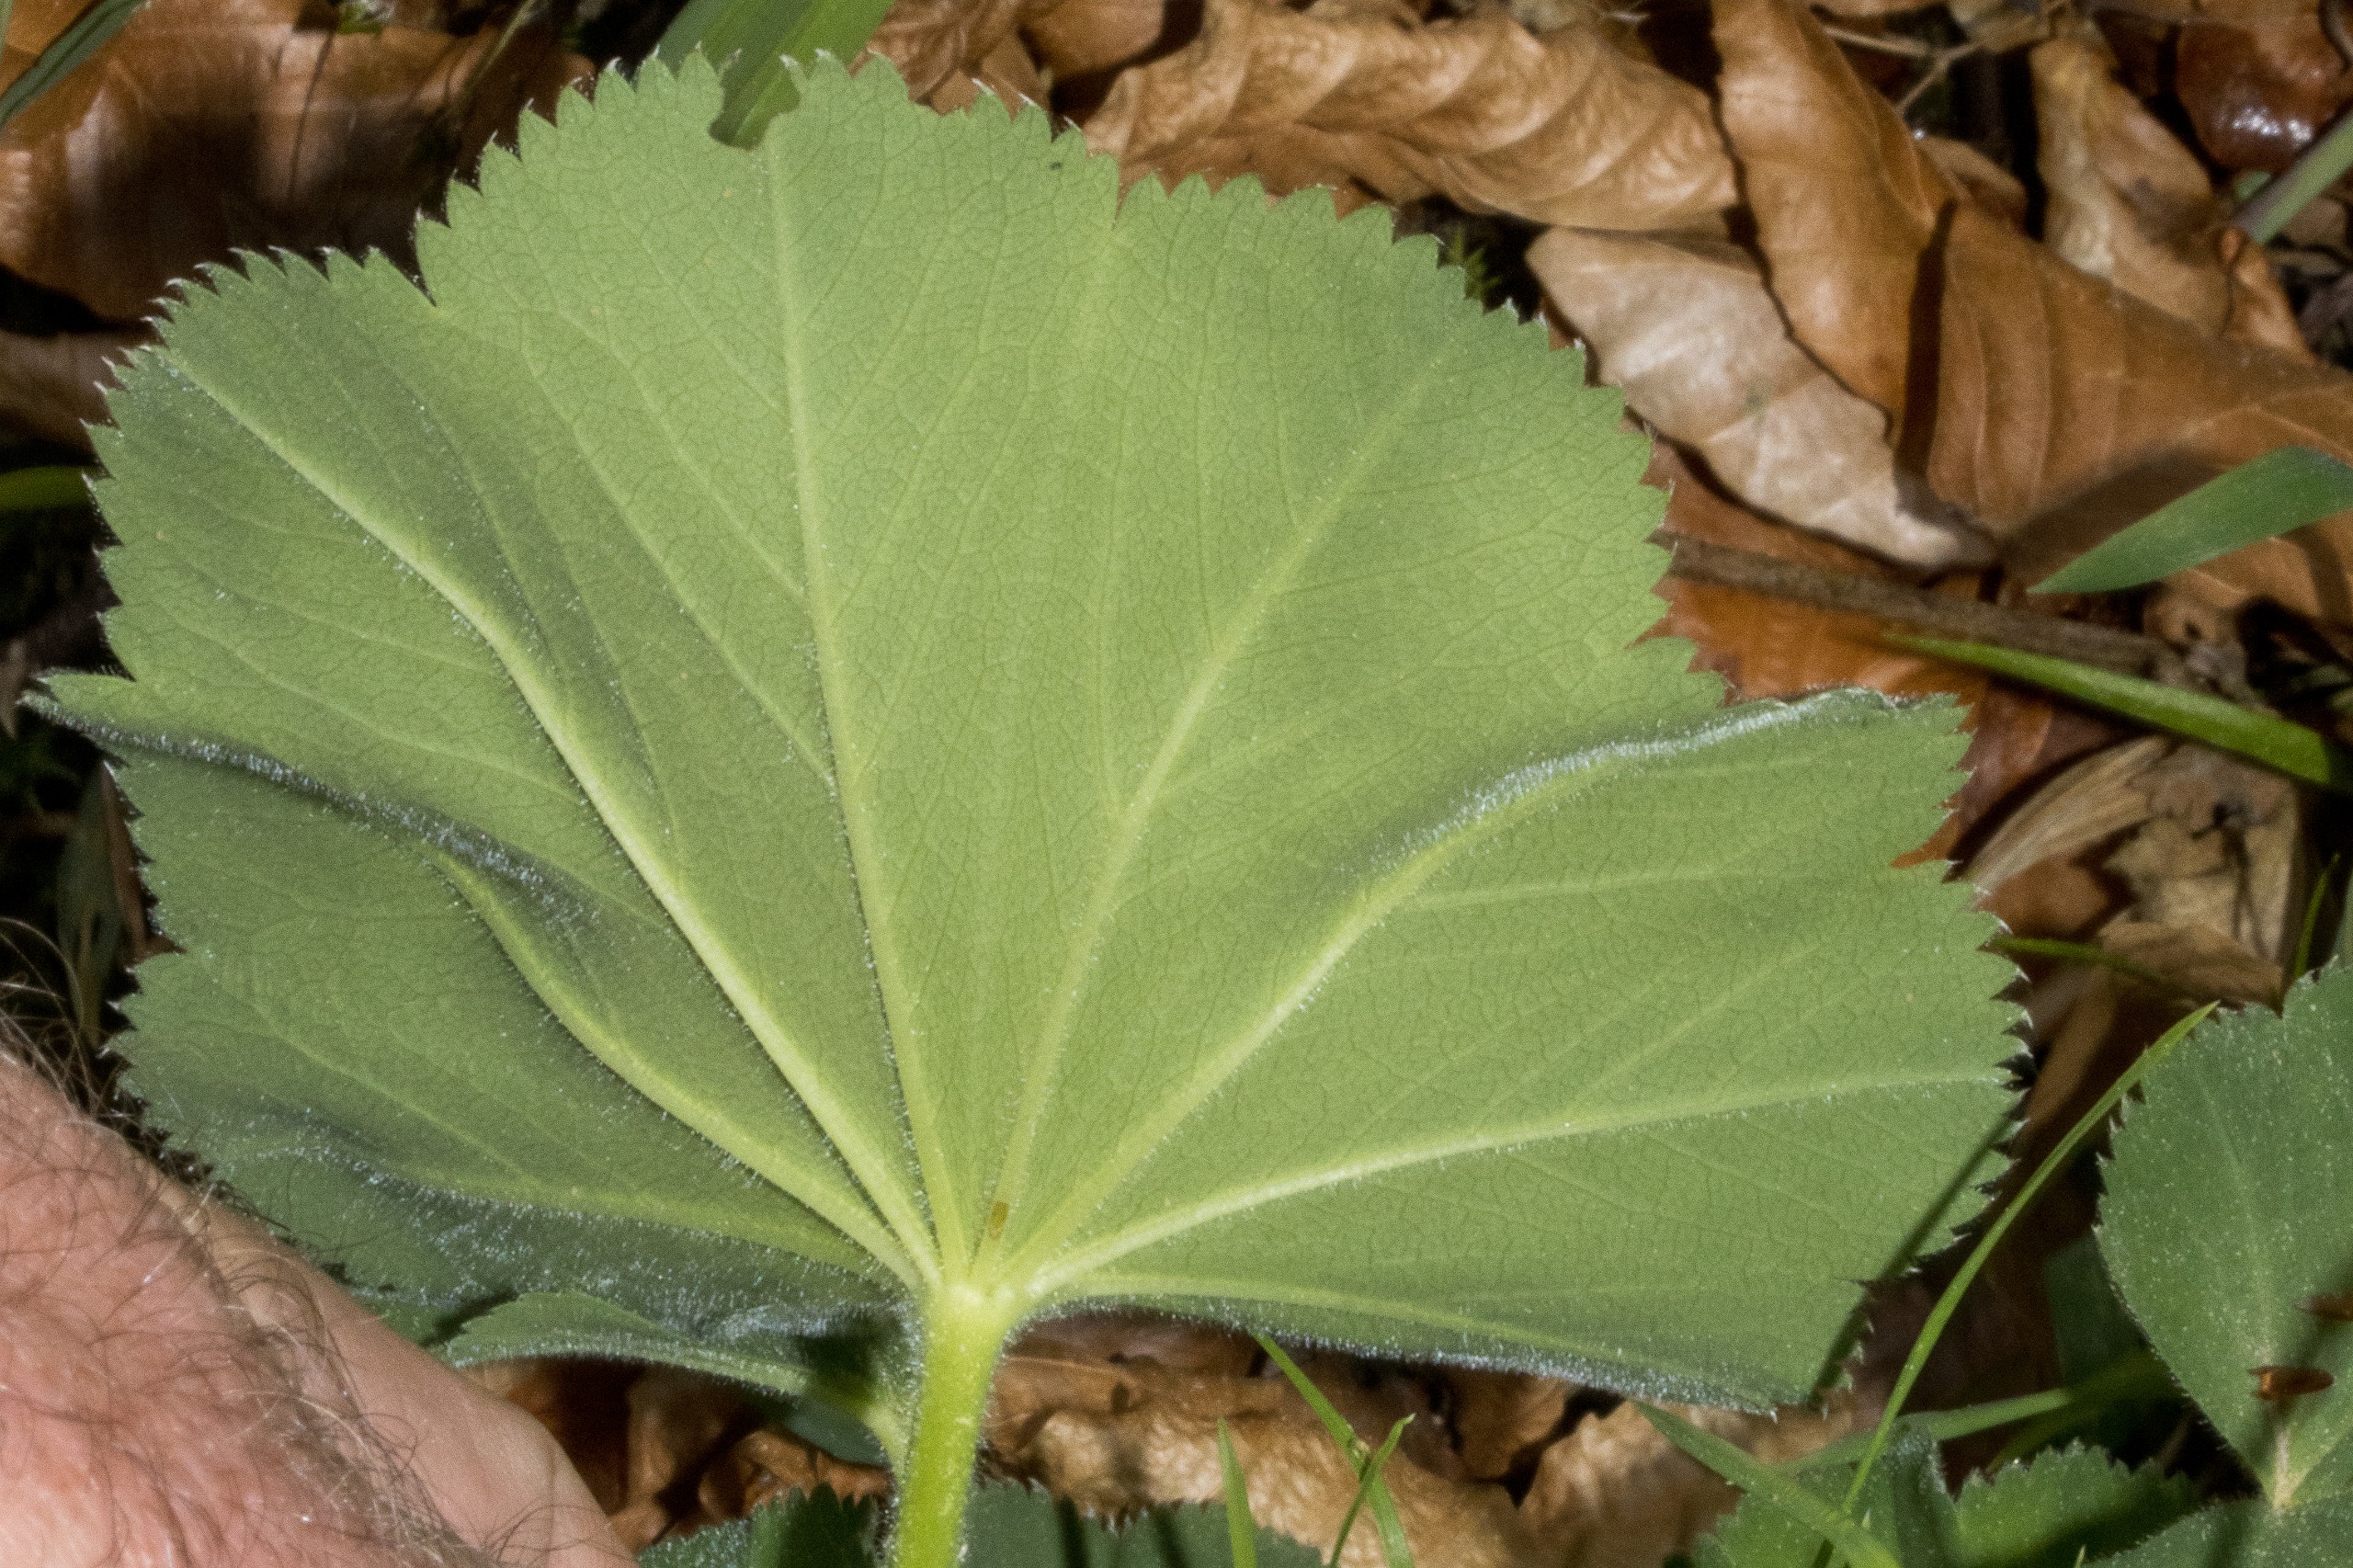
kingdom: Plantae
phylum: Tracheophyta
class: Magnoliopsida
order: Rosales
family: Rosaceae
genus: Alchemilla
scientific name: Alchemilla mollis
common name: Lådden løvefod
